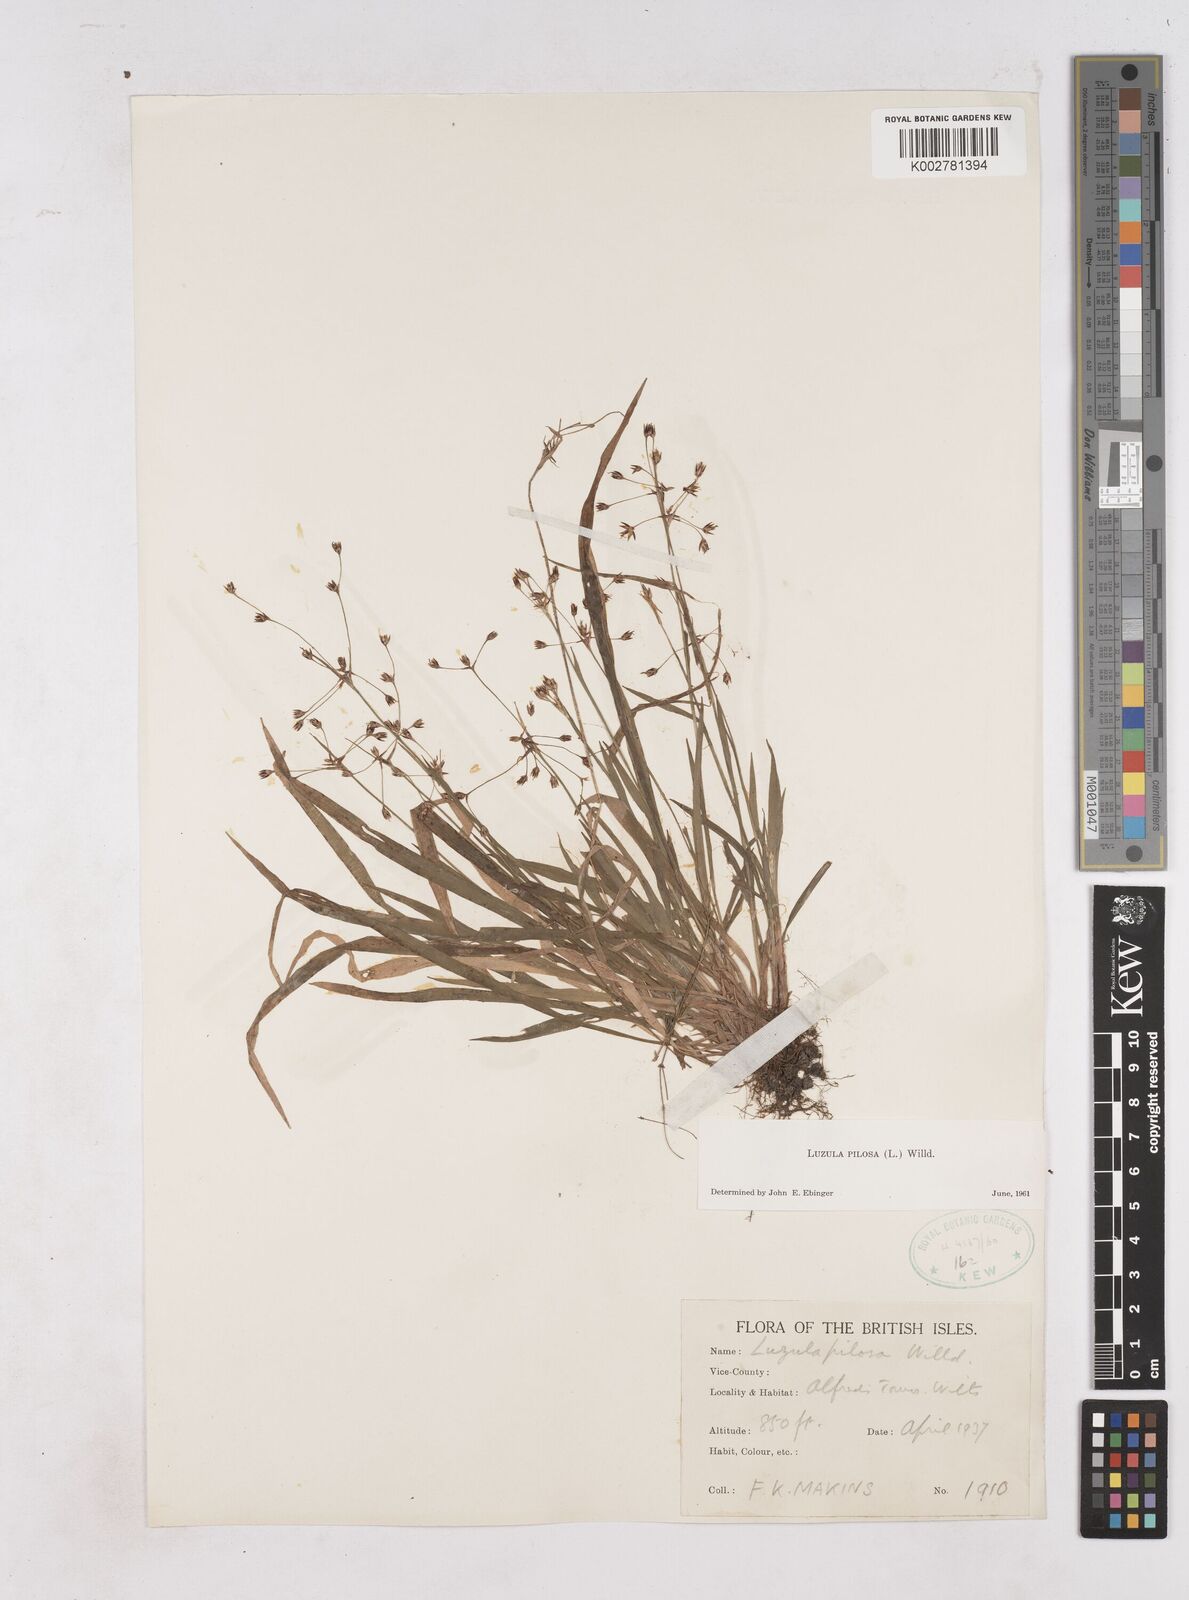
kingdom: Plantae
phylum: Tracheophyta
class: Liliopsida
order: Poales
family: Juncaceae
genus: Luzula
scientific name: Luzula pilosa
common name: Hairy wood-rush
